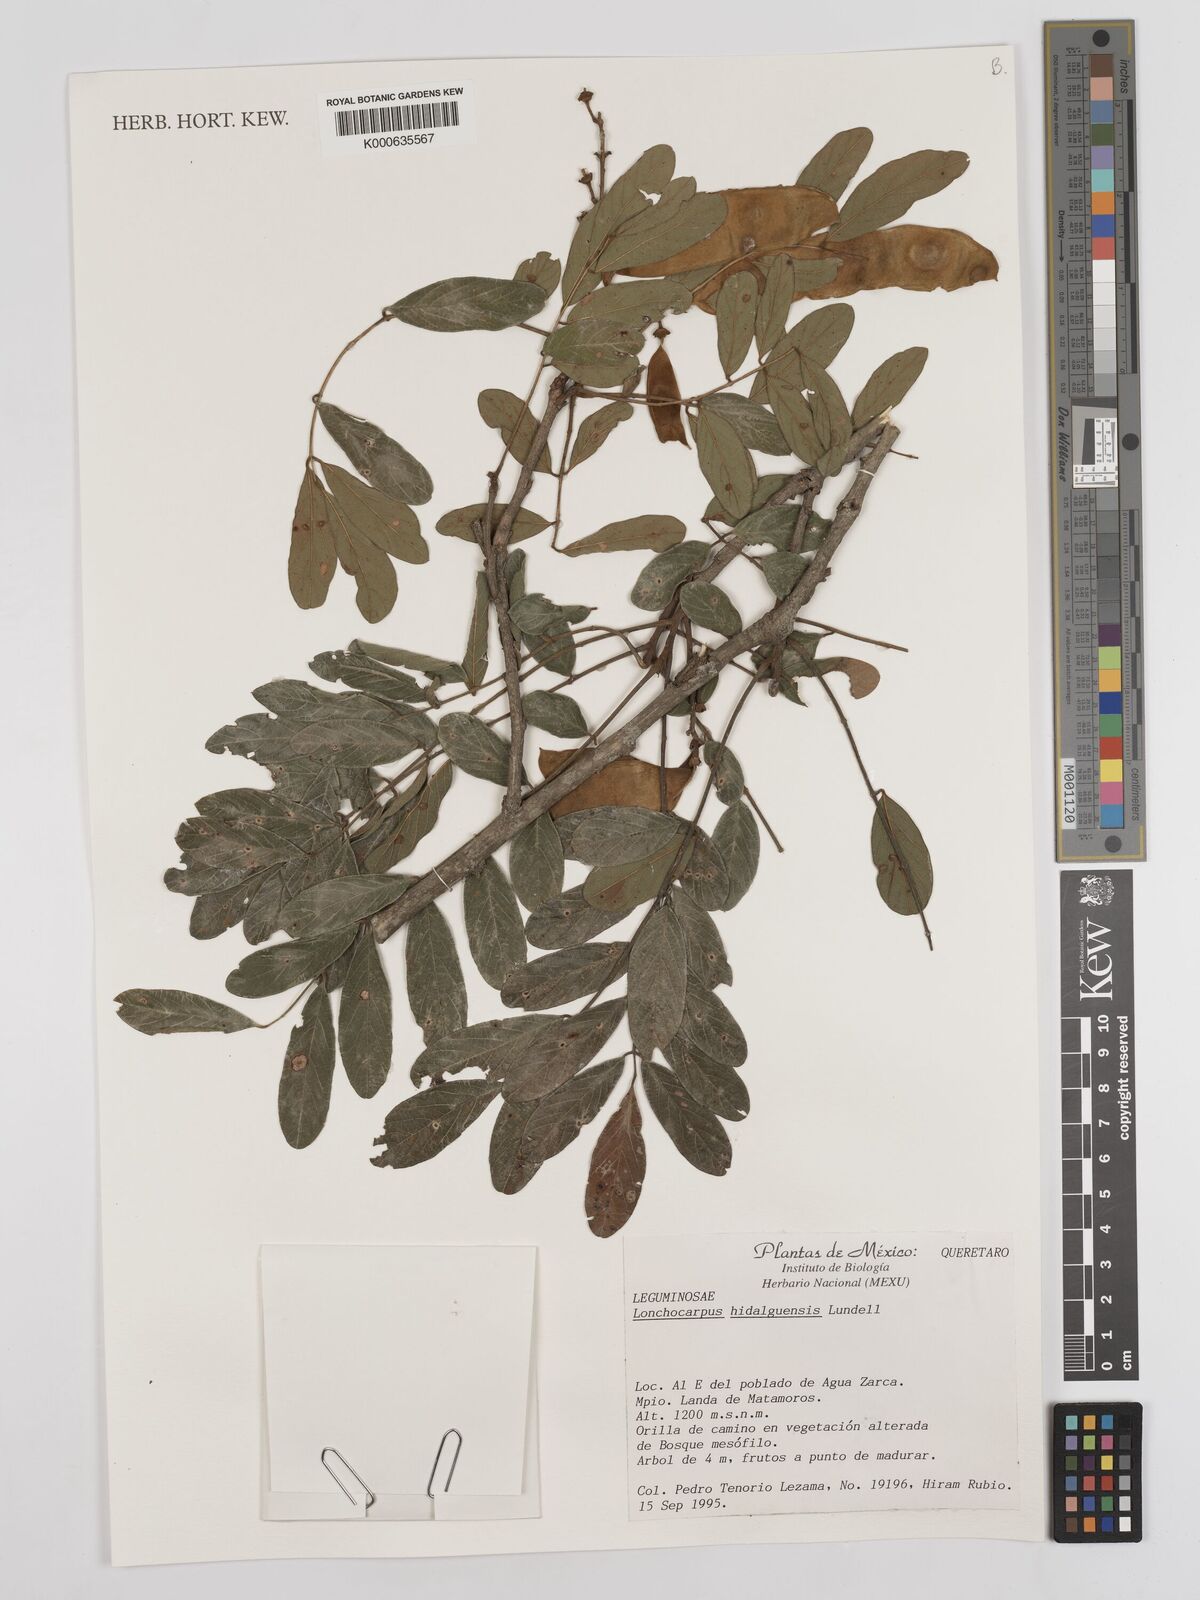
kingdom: Plantae
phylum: Tracheophyta
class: Magnoliopsida
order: Fabales
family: Fabaceae
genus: Lonchocarpus
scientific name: Lonchocarpus hidalgensis
